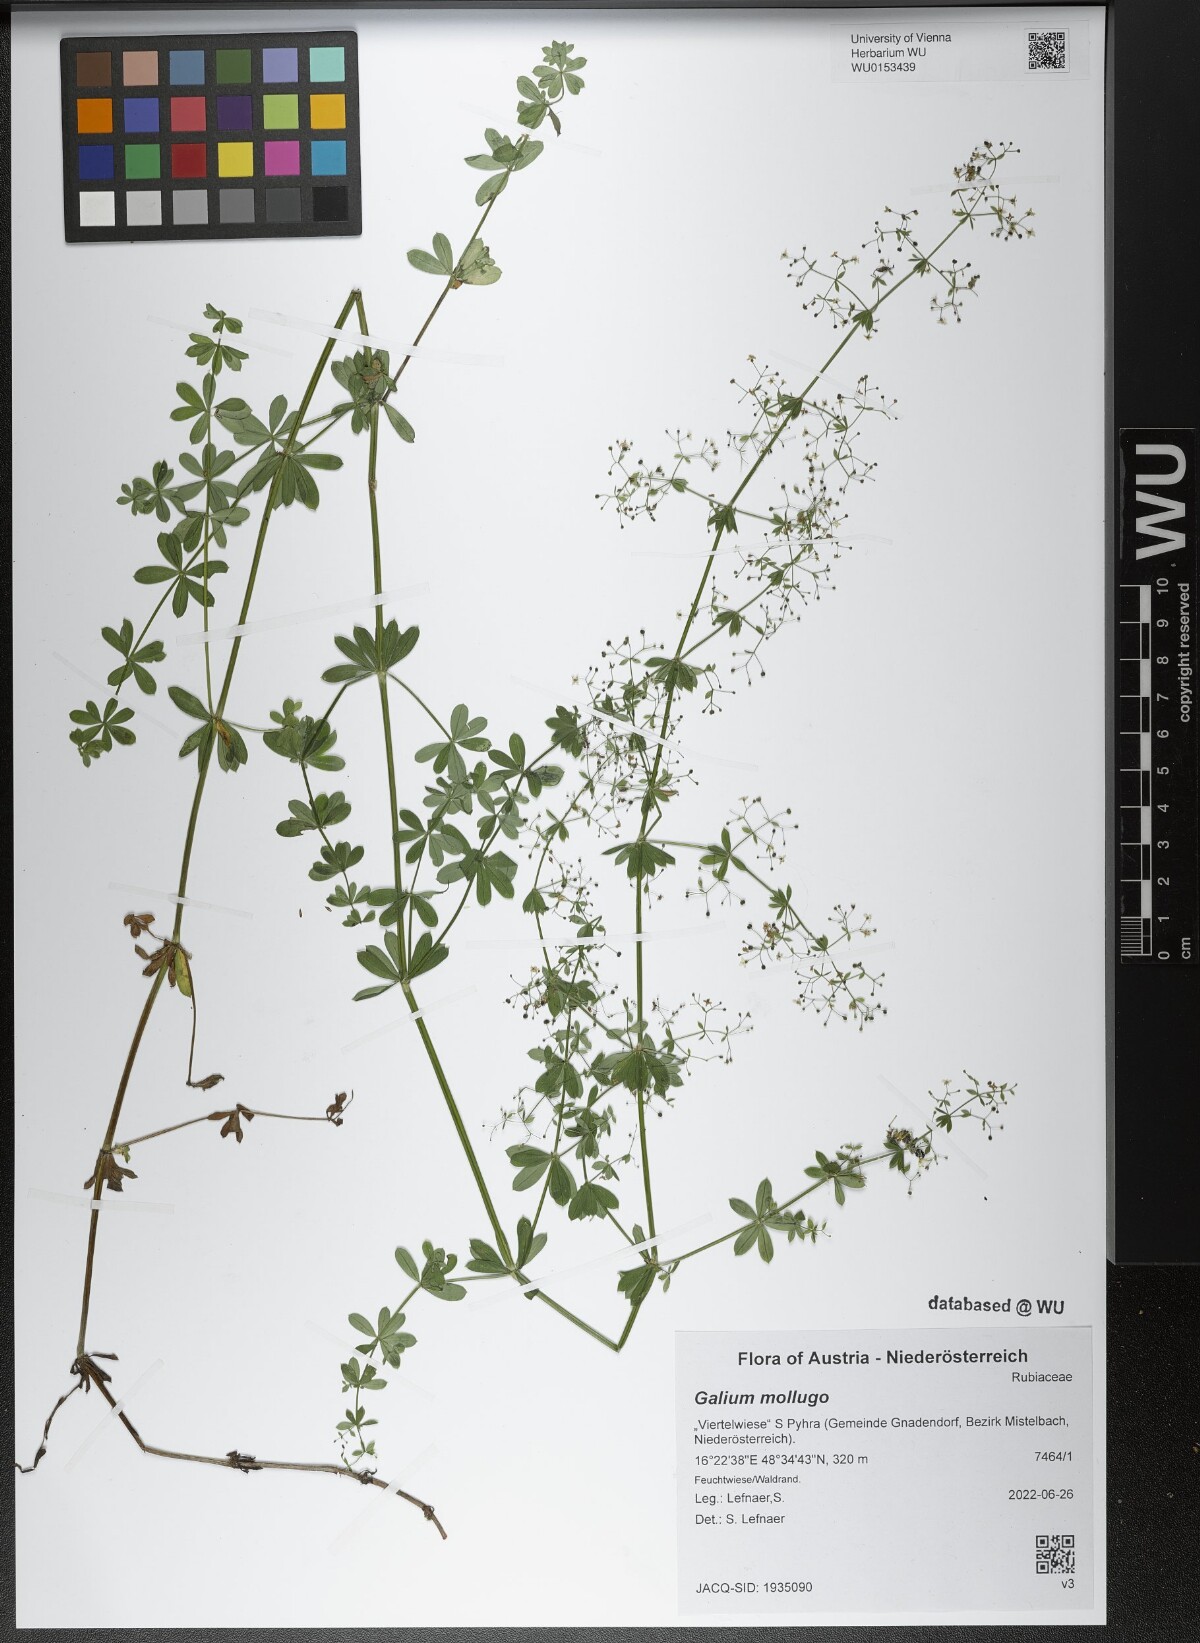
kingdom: Plantae
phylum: Tracheophyta
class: Magnoliopsida
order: Gentianales
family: Rubiaceae
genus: Galium
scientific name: Galium mollugo
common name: Hedge bedstraw
